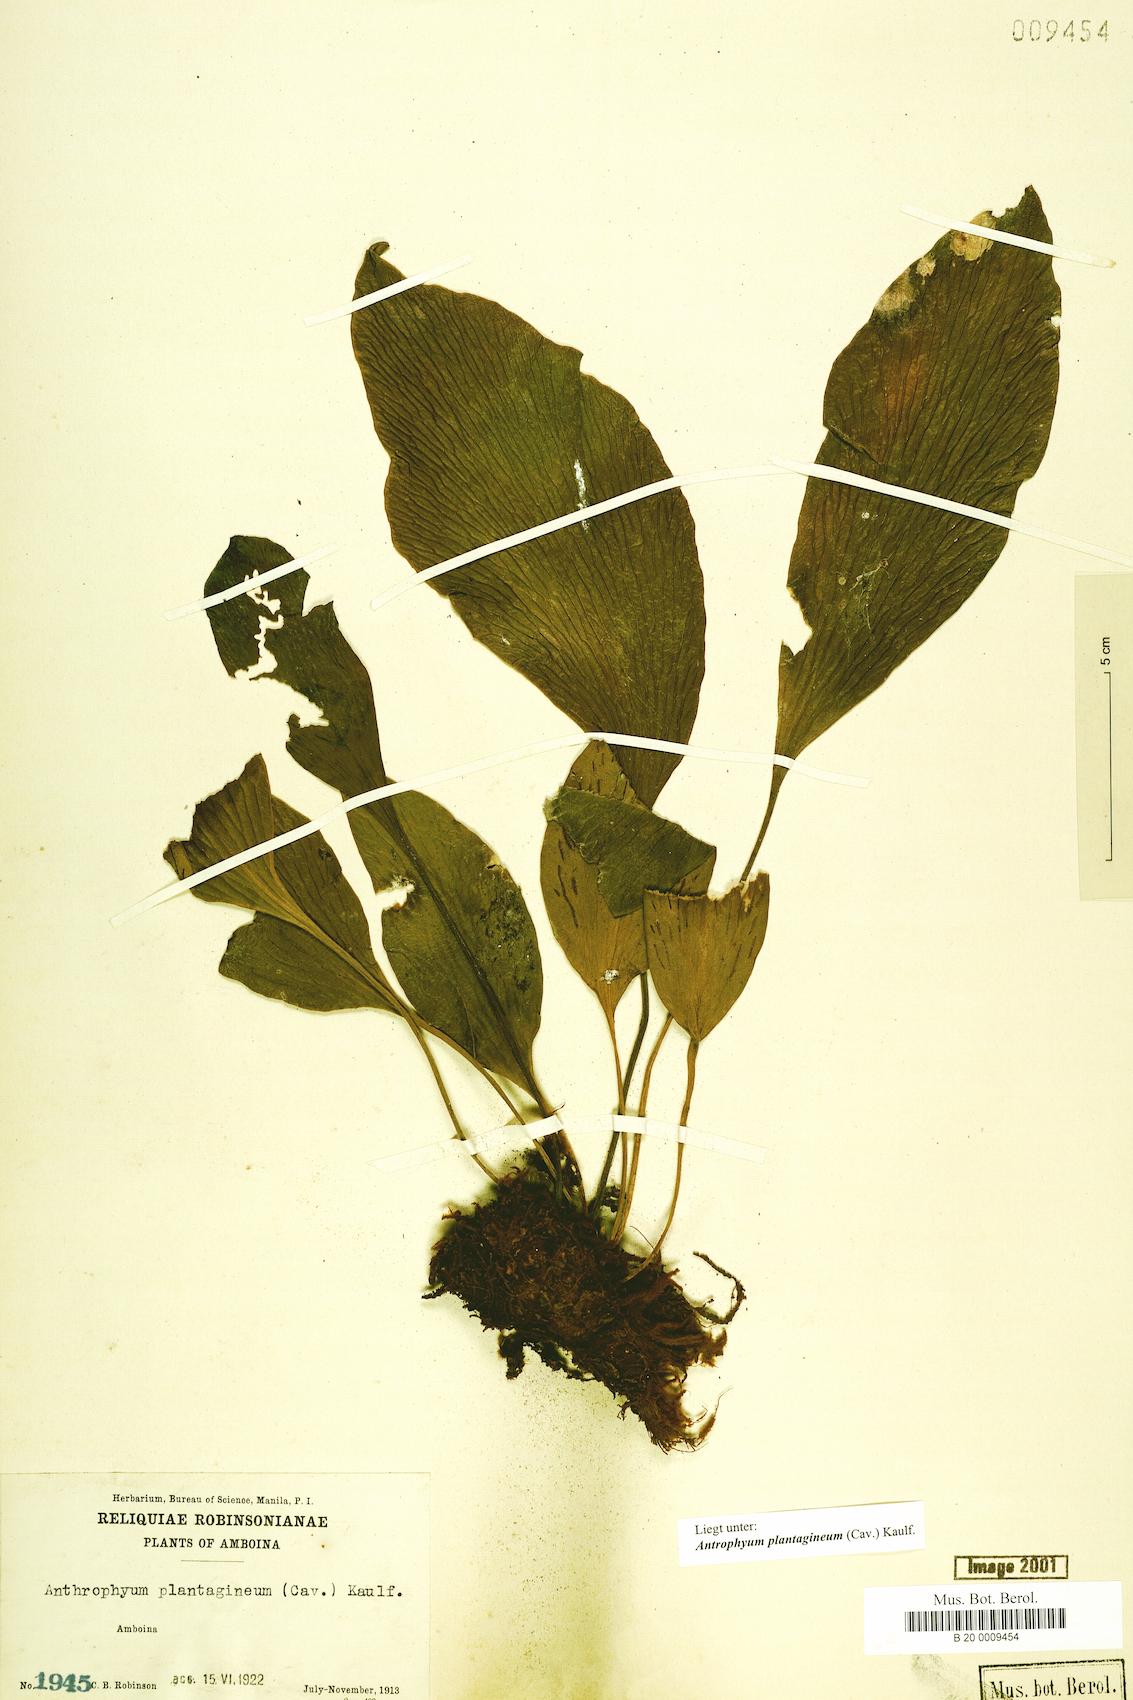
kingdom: Plantae
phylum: Tracheophyta
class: Polypodiopsida
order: Polypodiales
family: Pteridaceae
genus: Antrophyum
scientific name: Antrophyum plantagineum
